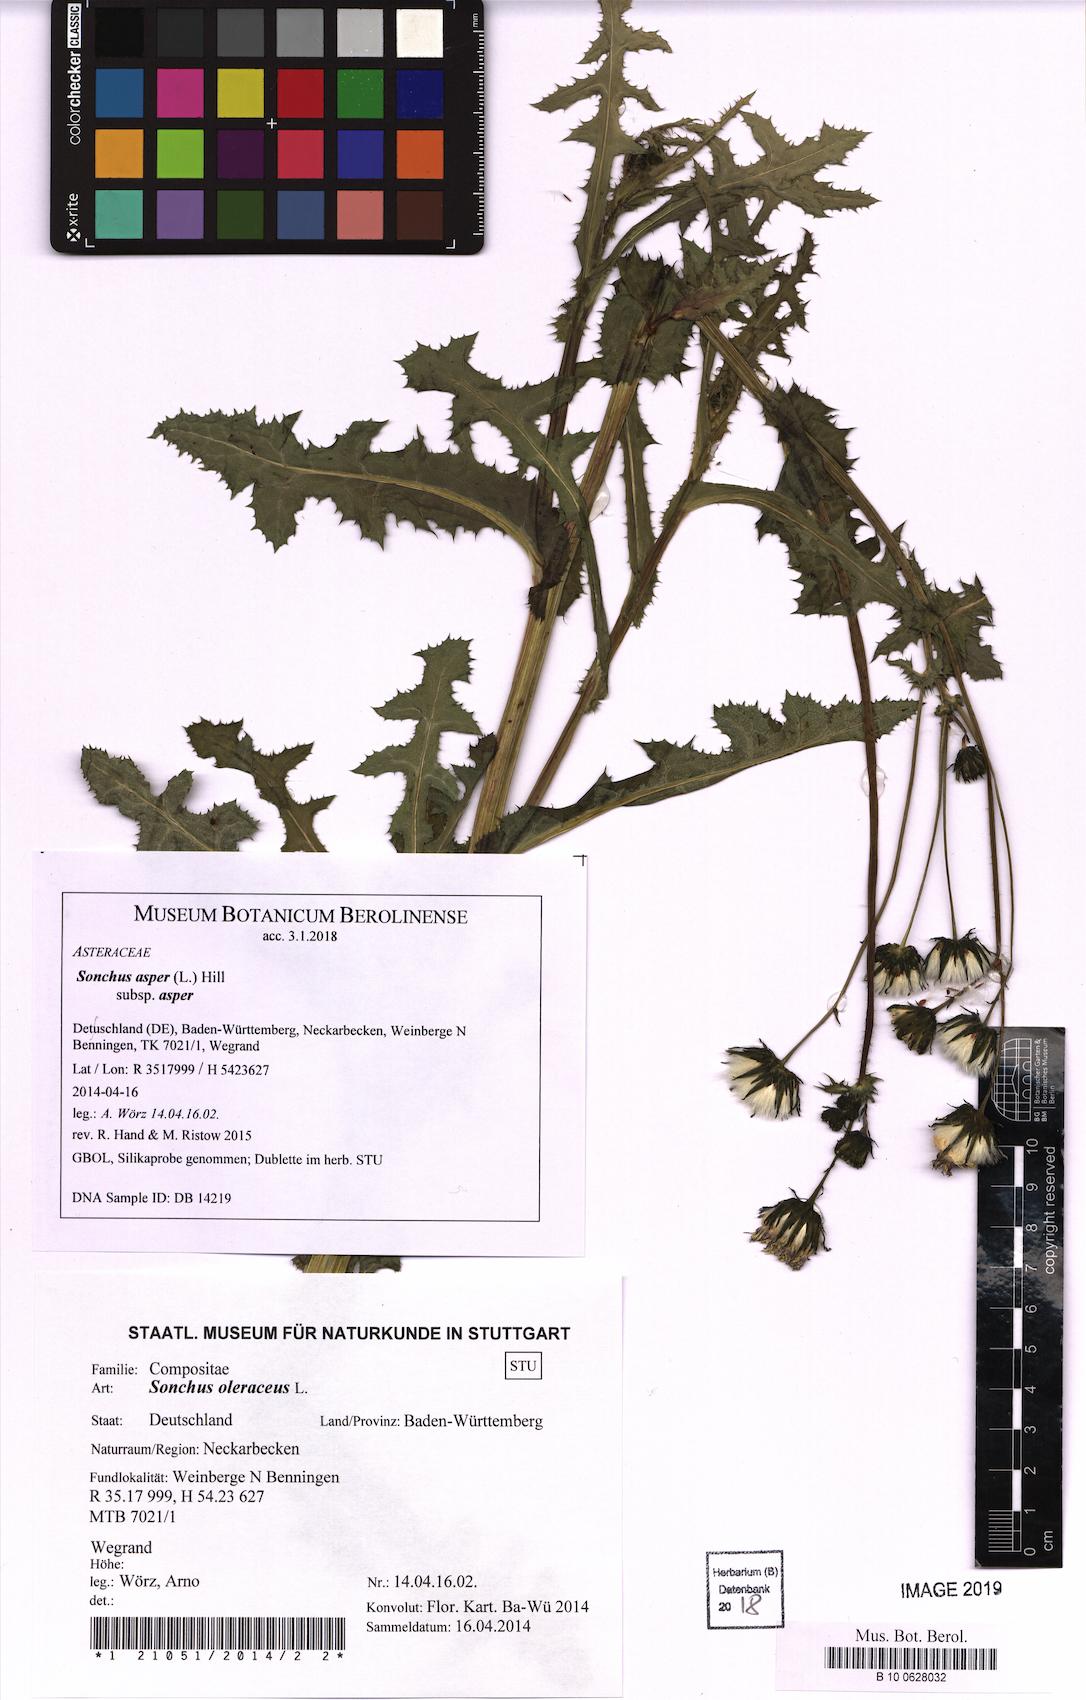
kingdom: Plantae
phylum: Tracheophyta
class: Magnoliopsida
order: Asterales
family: Asteraceae
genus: Sonchus
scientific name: Sonchus asper
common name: Prickly sow-thistle
